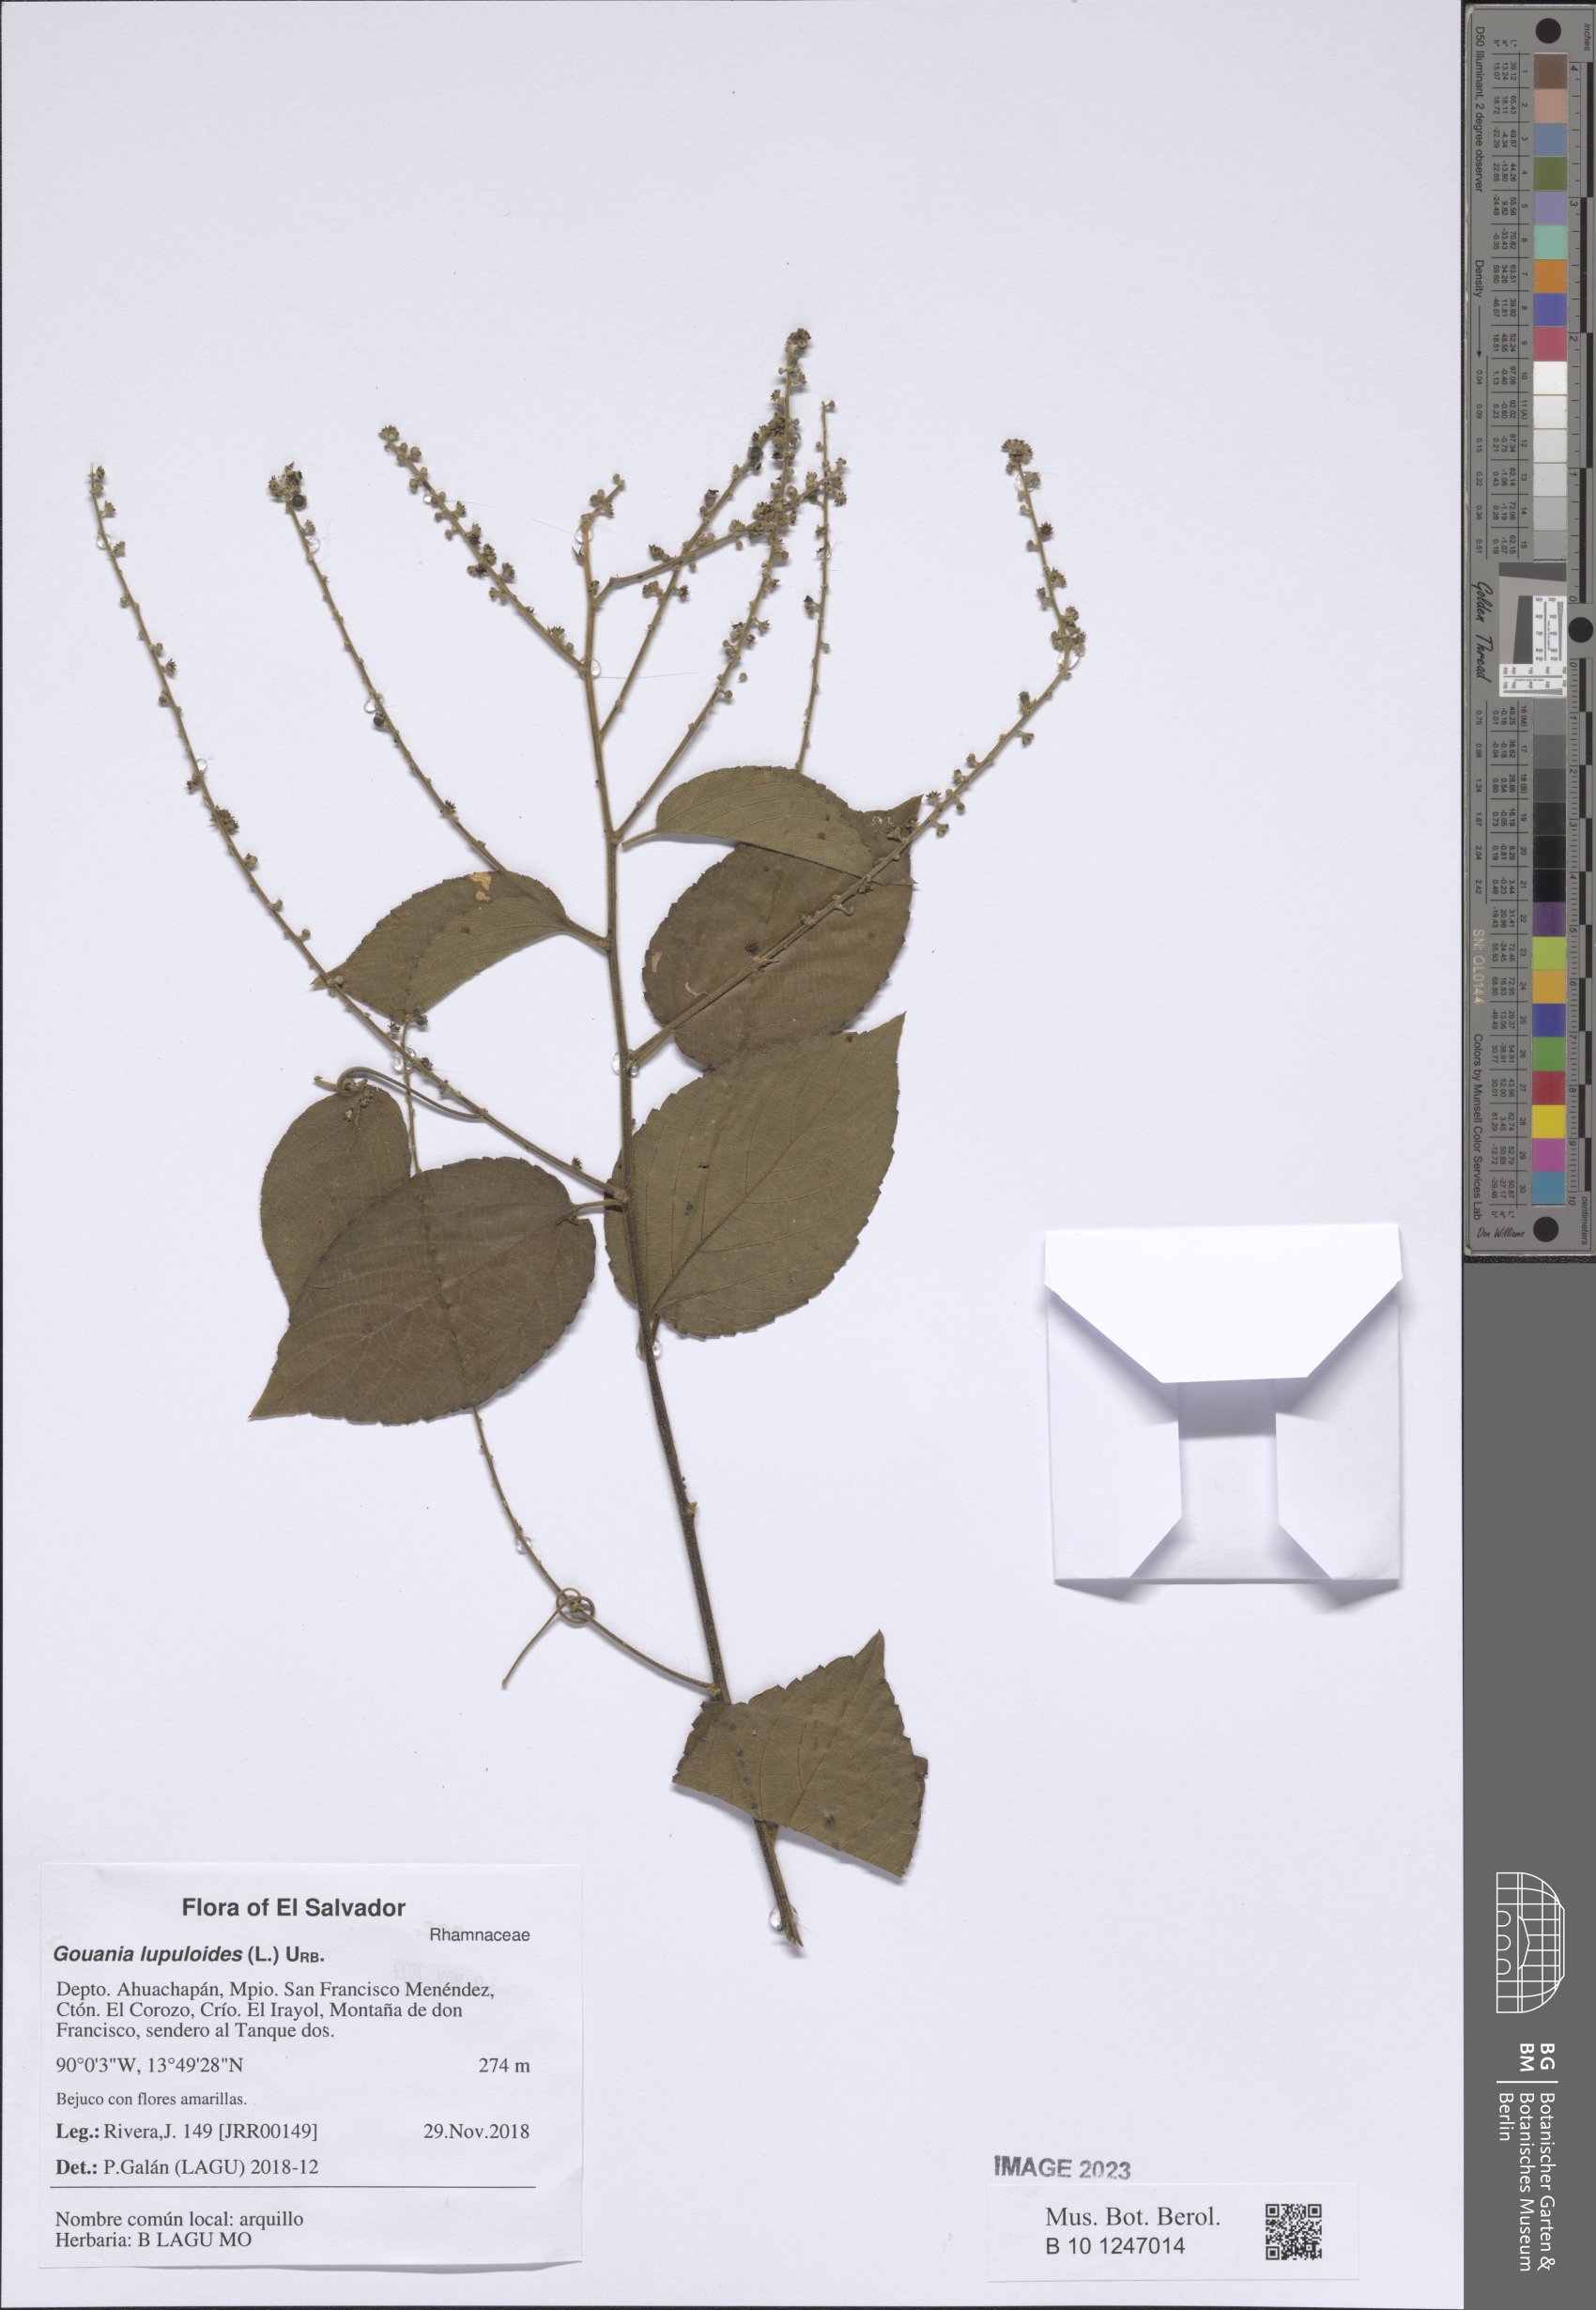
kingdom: Plantae
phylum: Tracheophyta
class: Magnoliopsida
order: Rosales
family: Rhamnaceae
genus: Gouania
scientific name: Gouania lupuloides
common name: Chewstick
